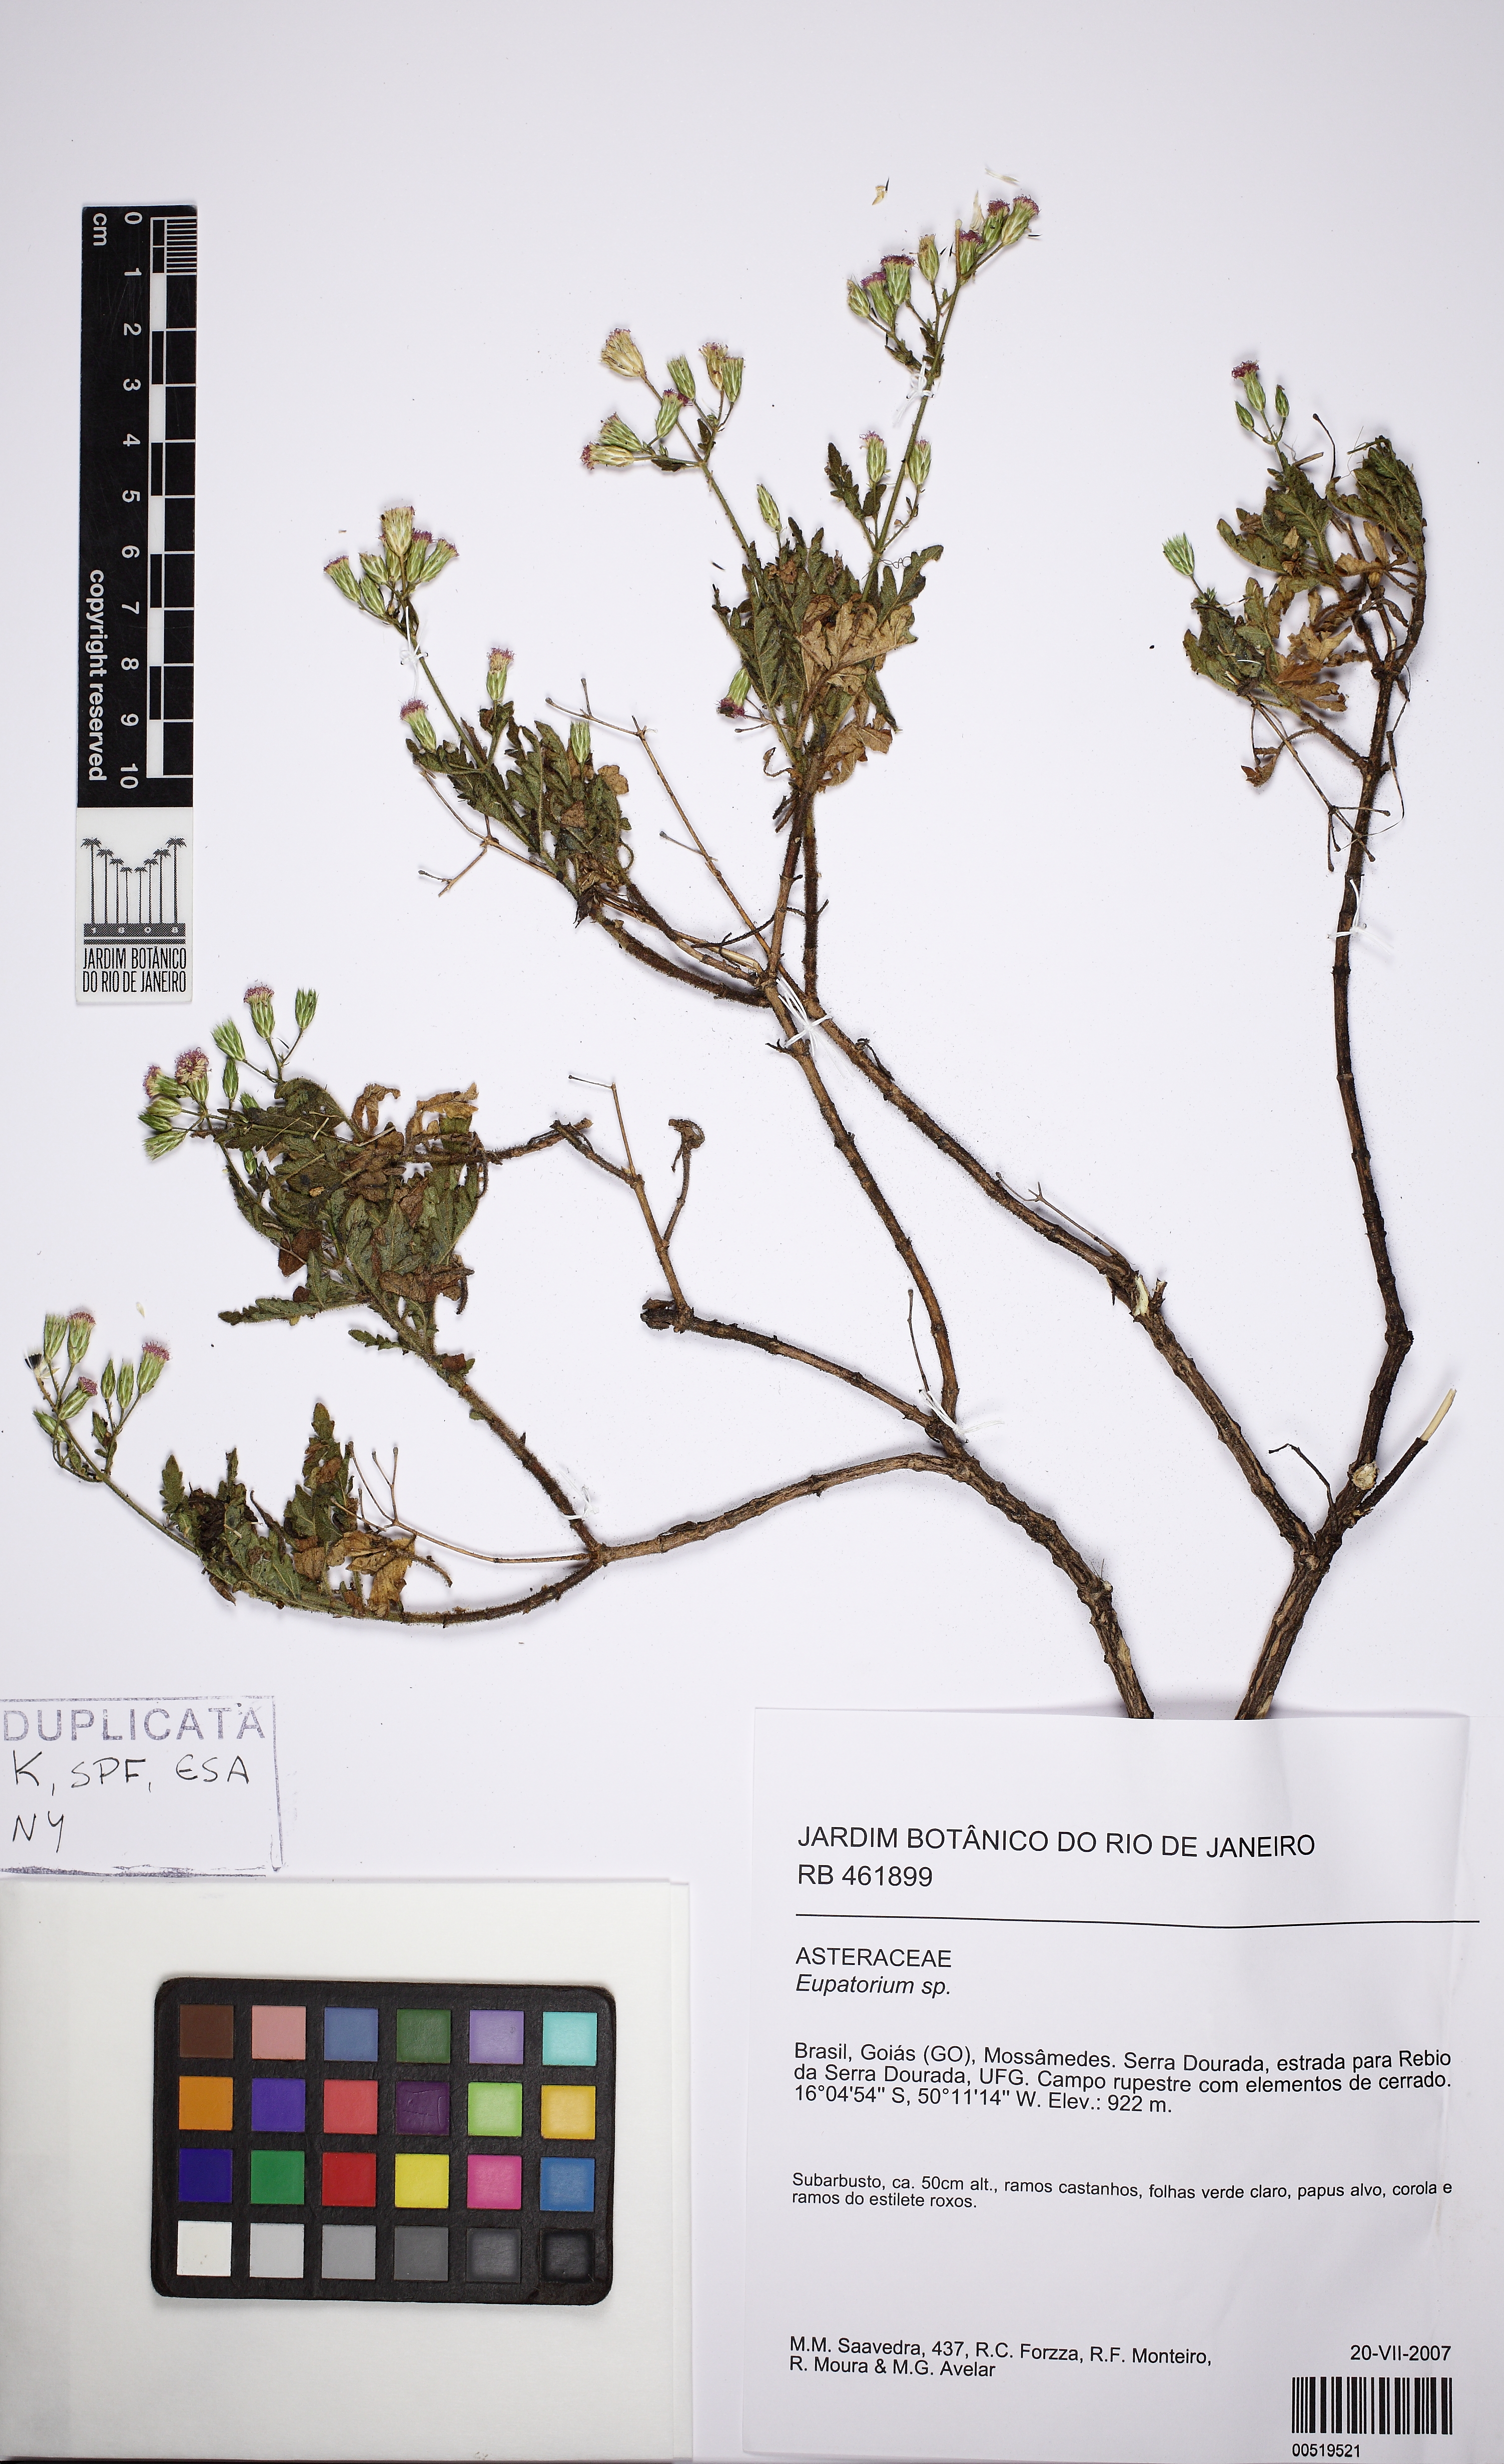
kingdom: Plantae
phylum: Tracheophyta
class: Magnoliopsida
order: Asterales
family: Asteraceae
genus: Eupatorium
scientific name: Eupatorium
